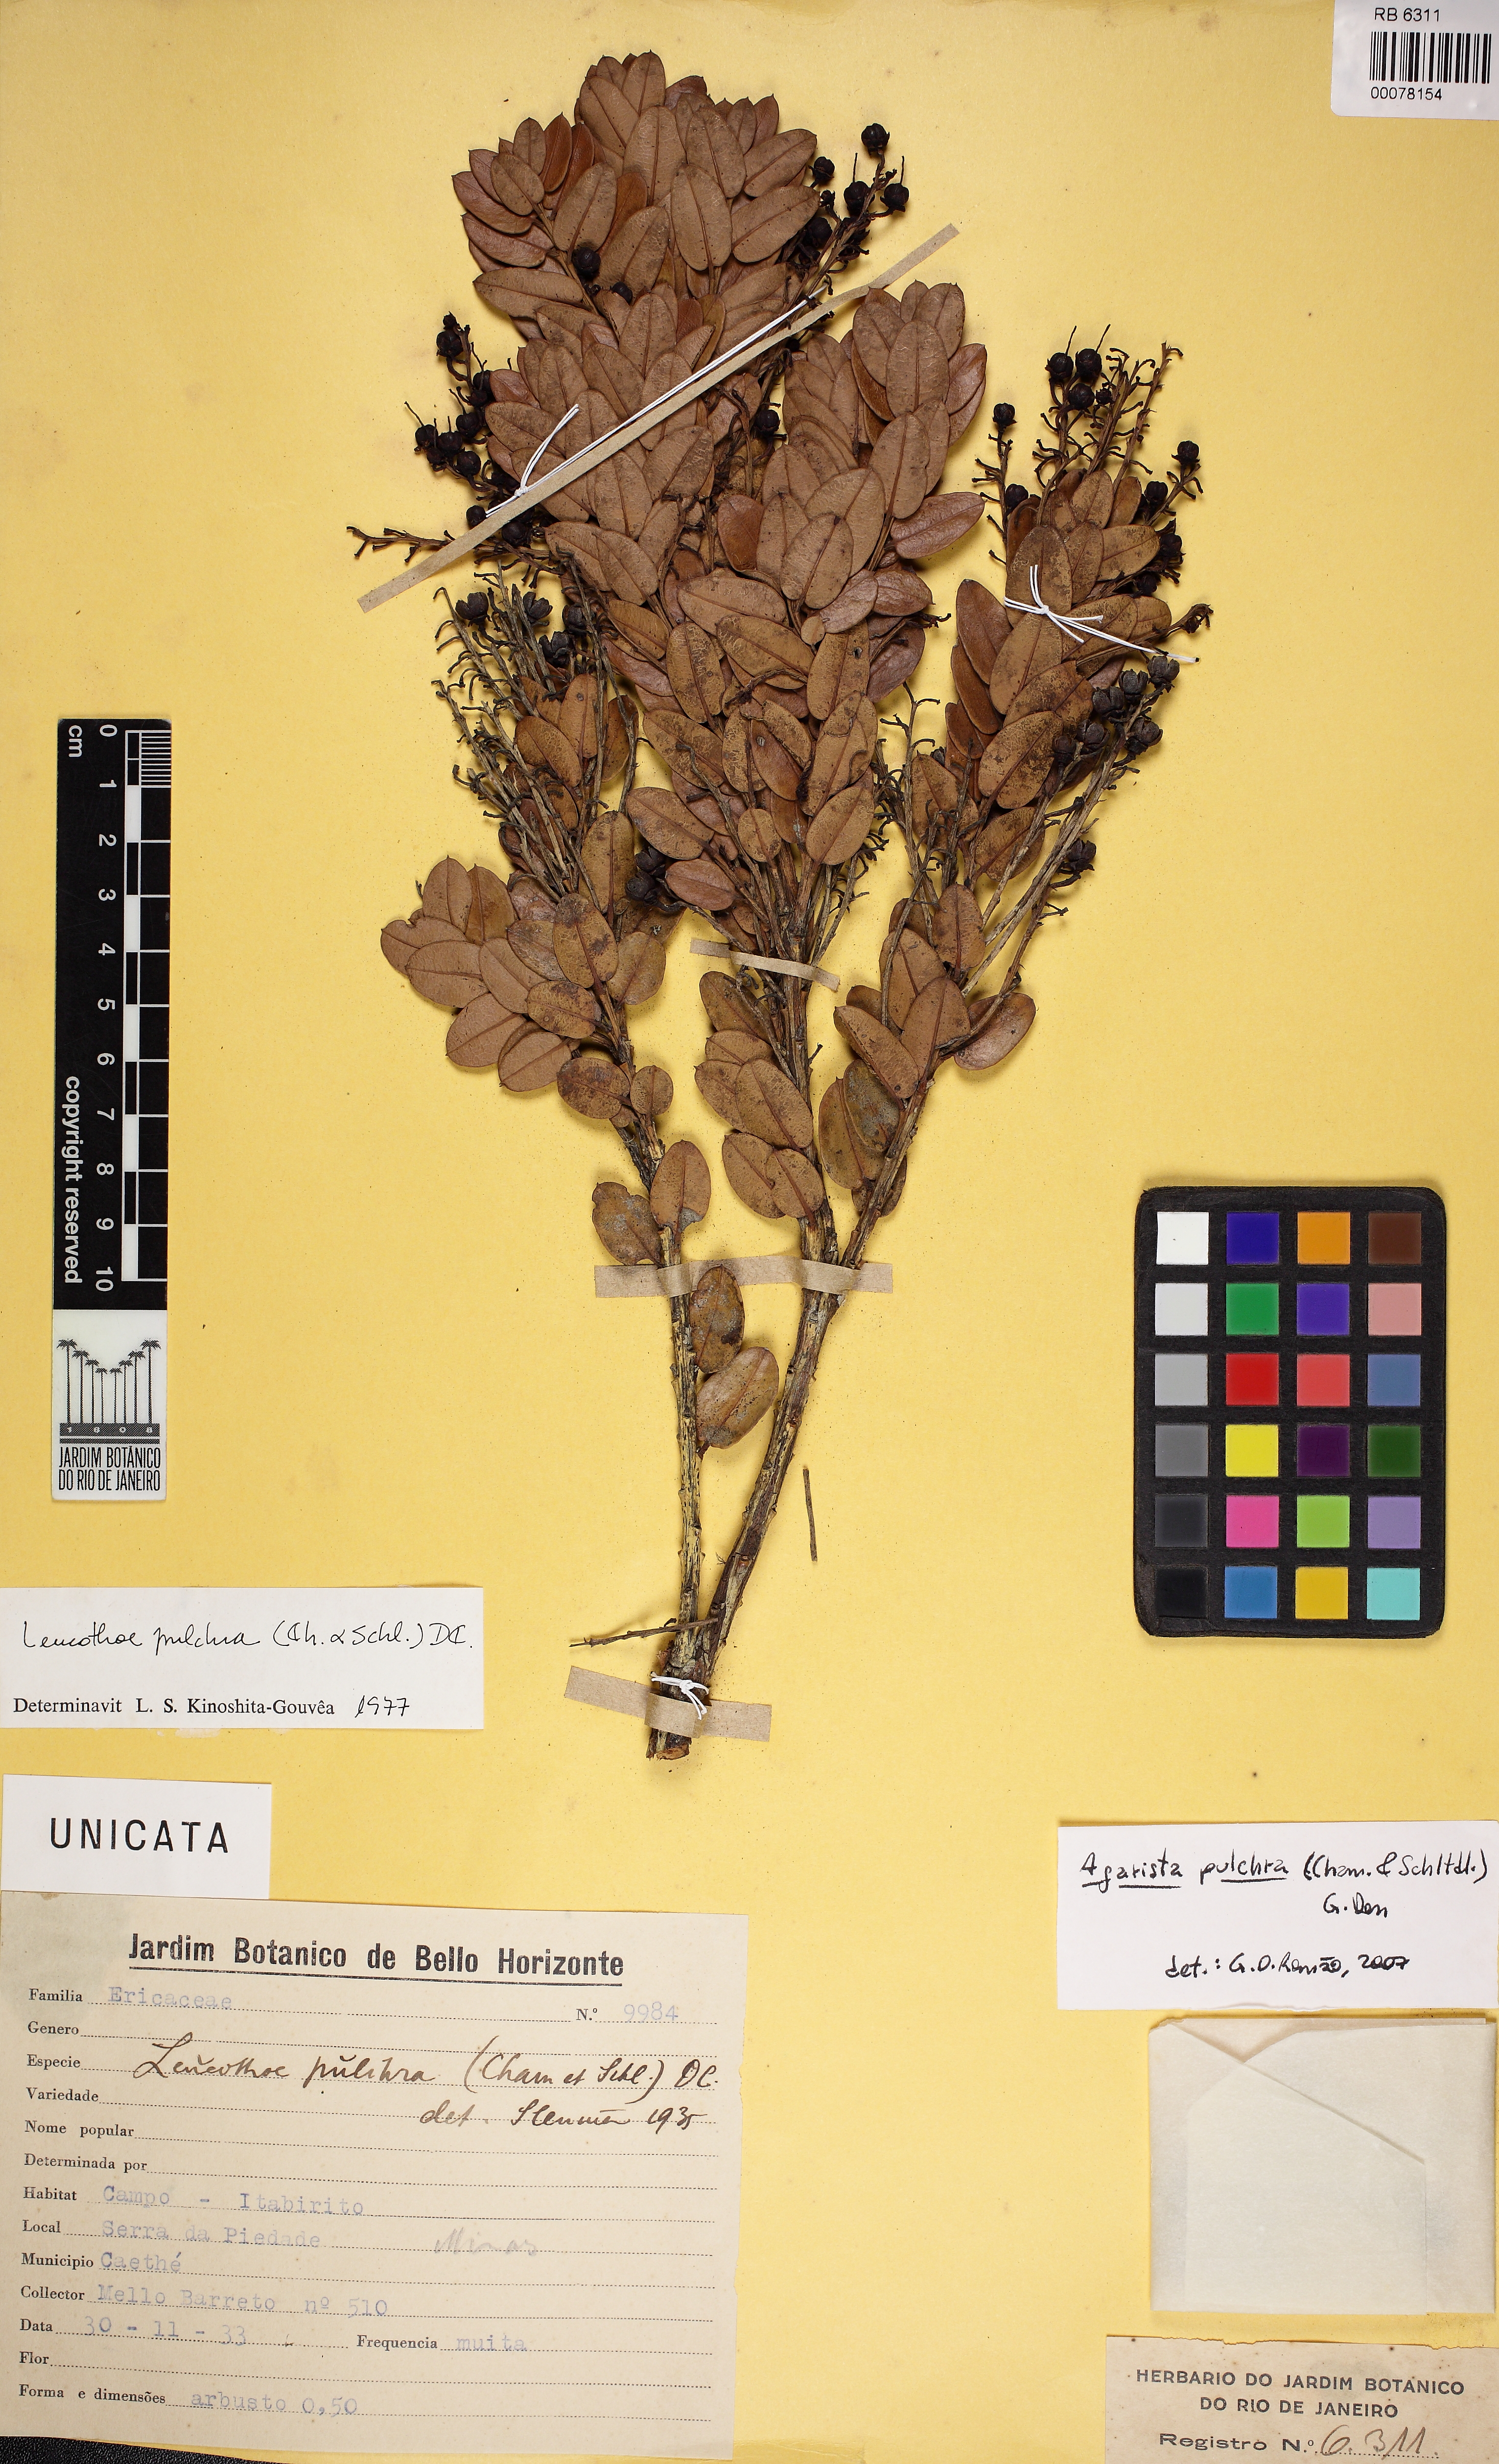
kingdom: Plantae
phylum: Tracheophyta
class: Magnoliopsida
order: Ericales
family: Ericaceae
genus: Agarista
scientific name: Agarista pulchra
